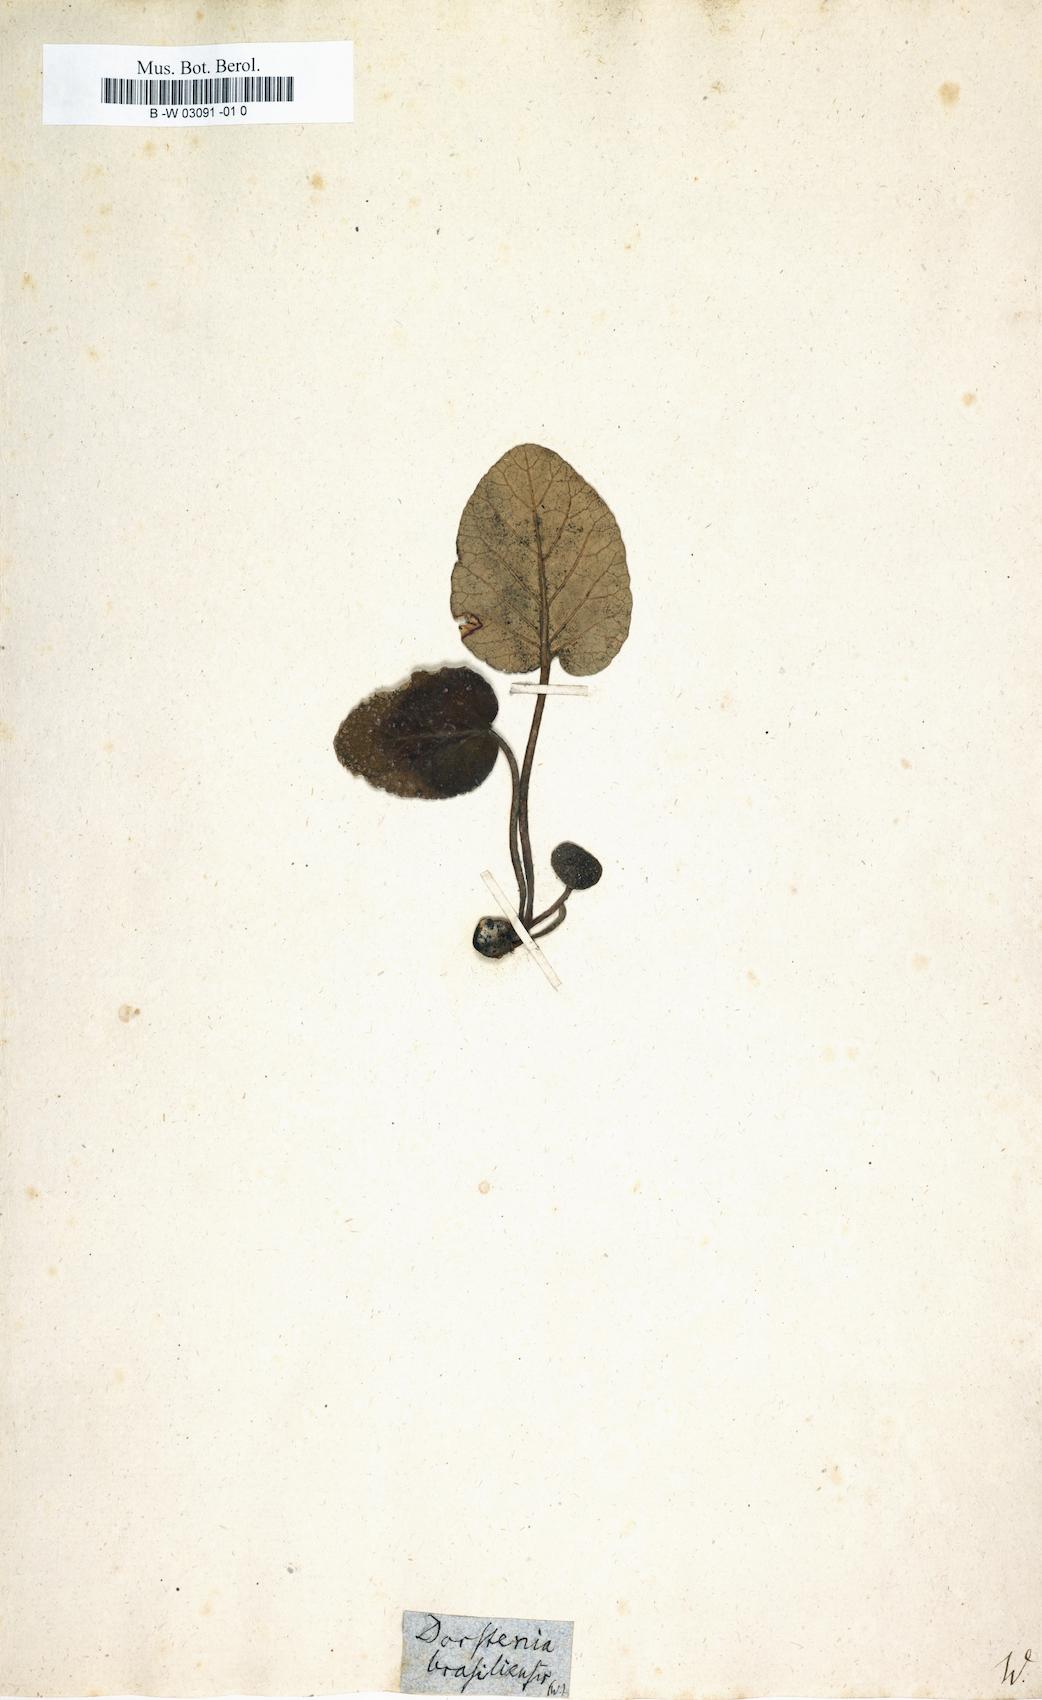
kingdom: Plantae
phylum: Tracheophyta
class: Magnoliopsida
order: Rosales
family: Moraceae
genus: Dorstenia
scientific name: Dorstenia brasiliensis
